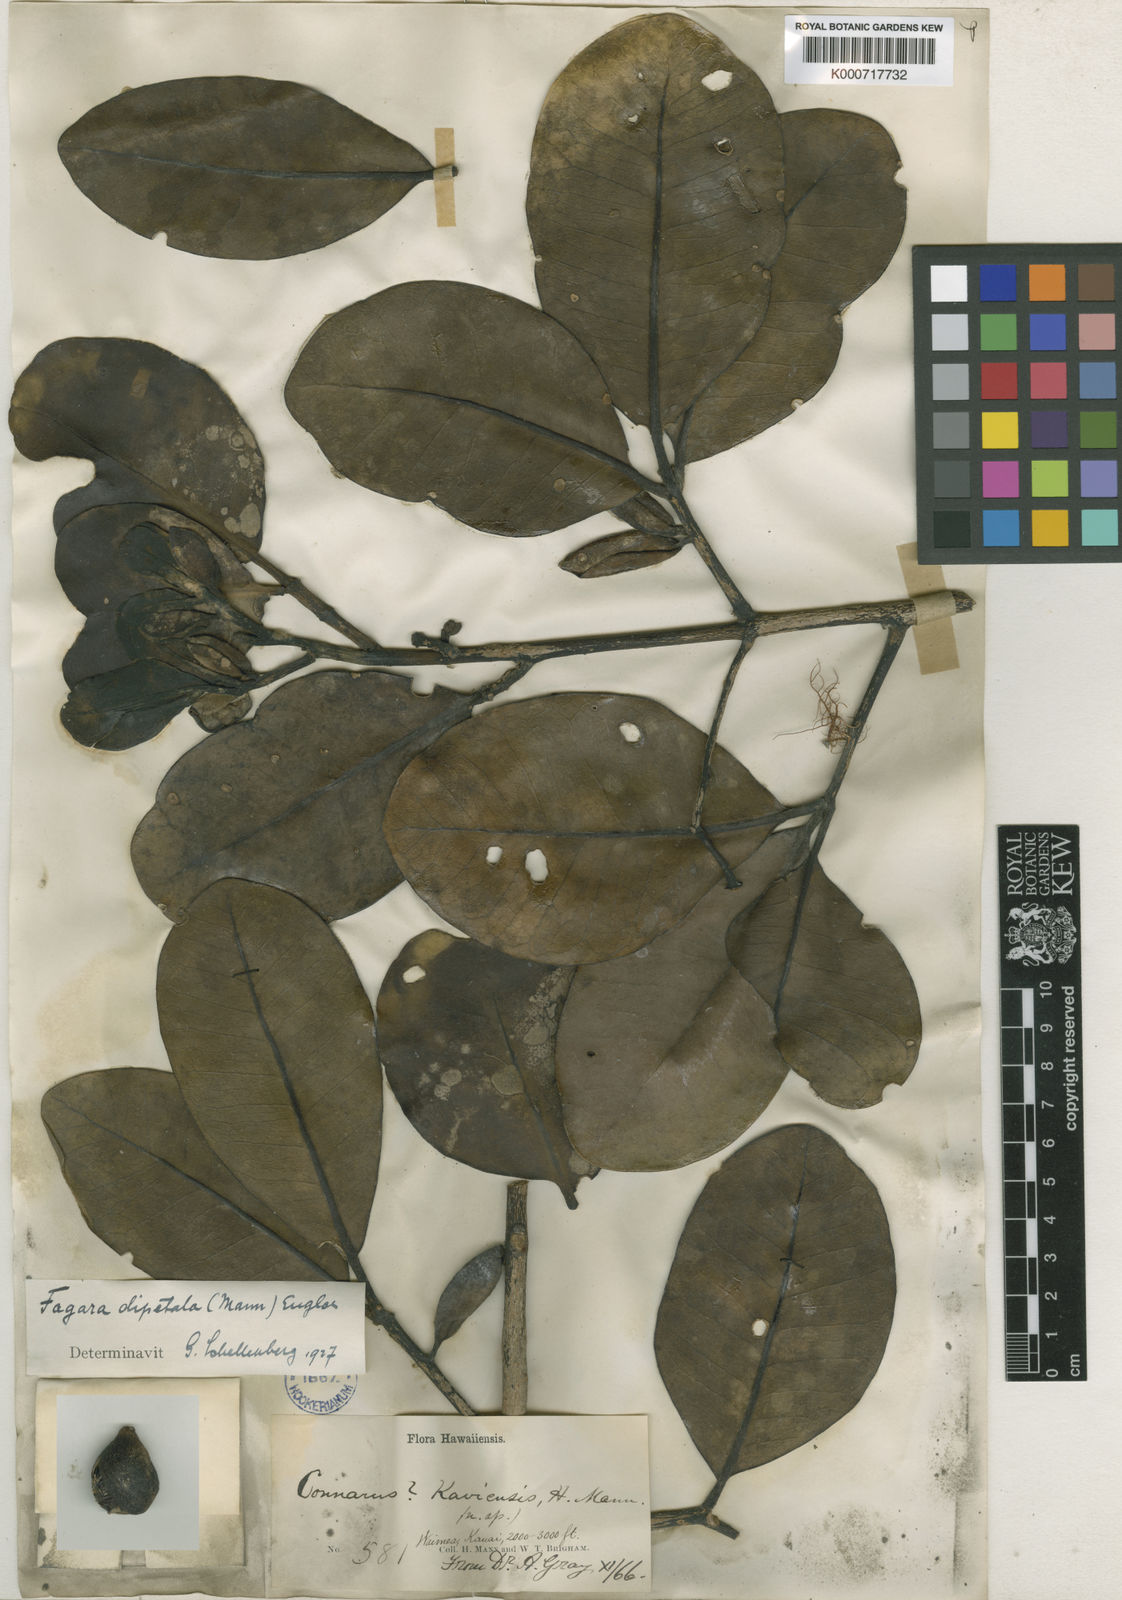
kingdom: Plantae
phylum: Tracheophyta
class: Magnoliopsida
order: Sapindales
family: Rutaceae
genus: Zanthoxylum
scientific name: Zanthoxylum dipetalum
